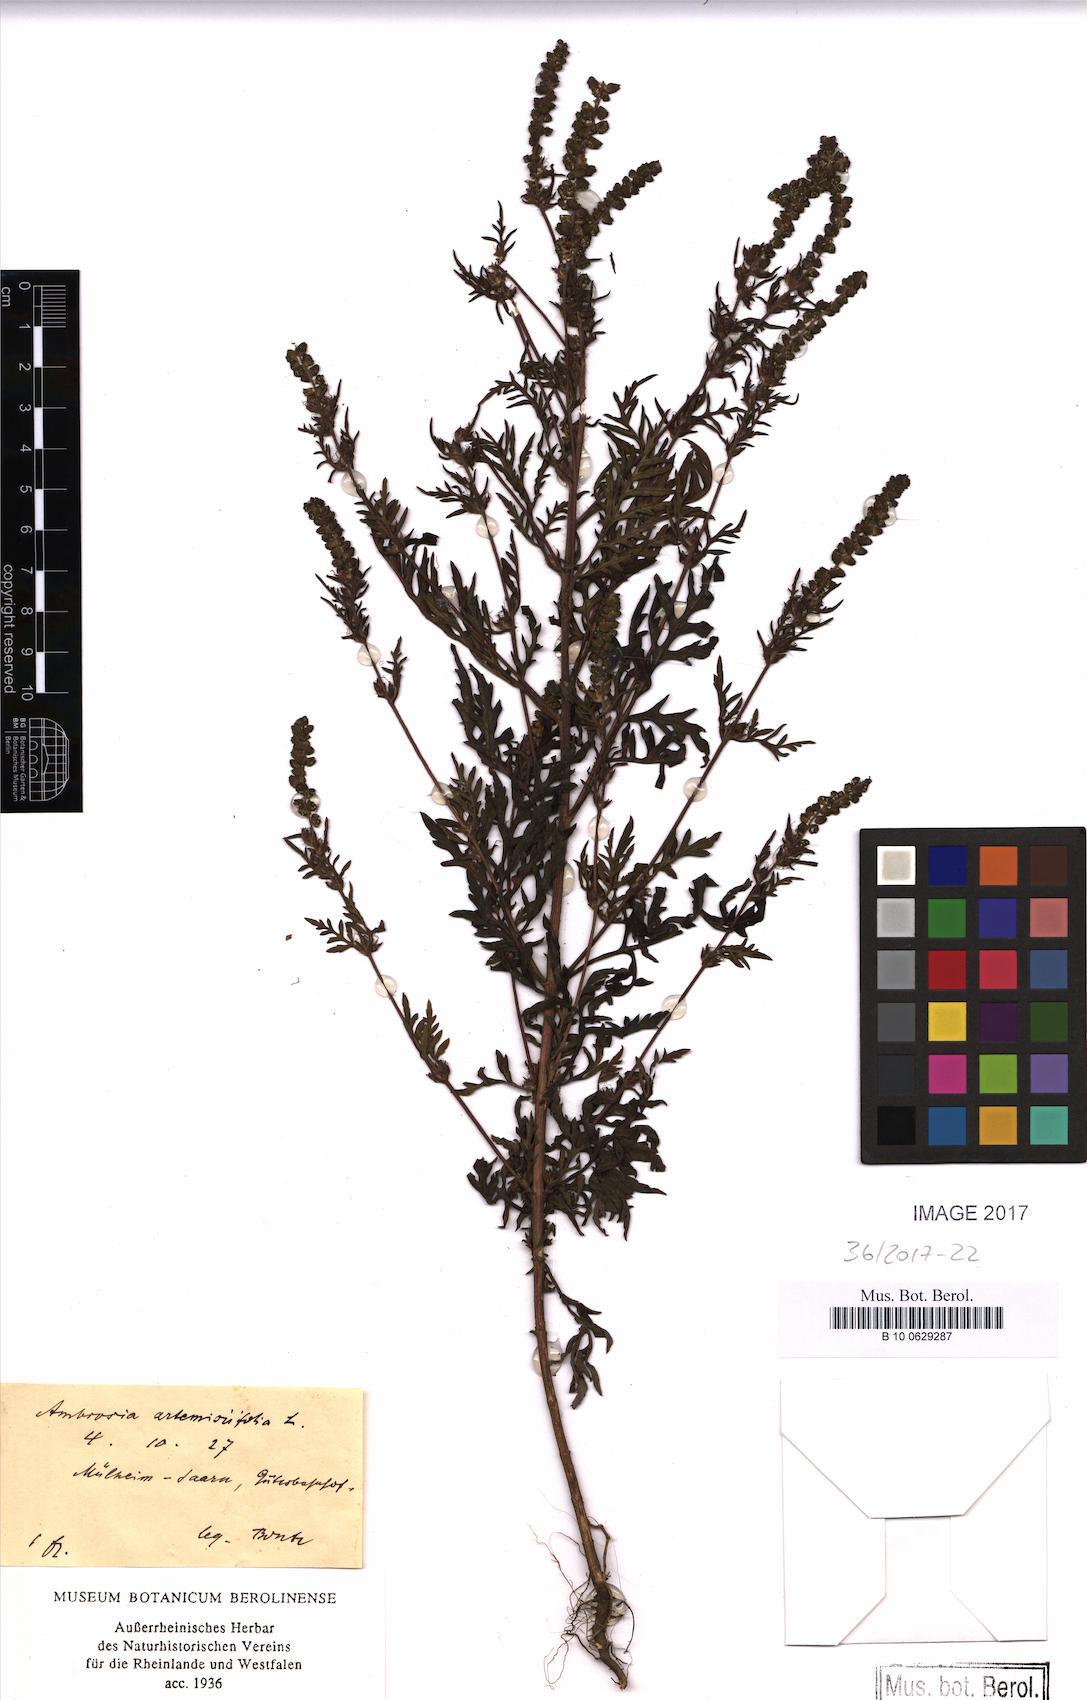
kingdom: Plantae
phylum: Tracheophyta
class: Magnoliopsida
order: Asterales
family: Asteraceae
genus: Ambrosia
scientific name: Ambrosia artemisiifolia
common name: Annual ragweed
